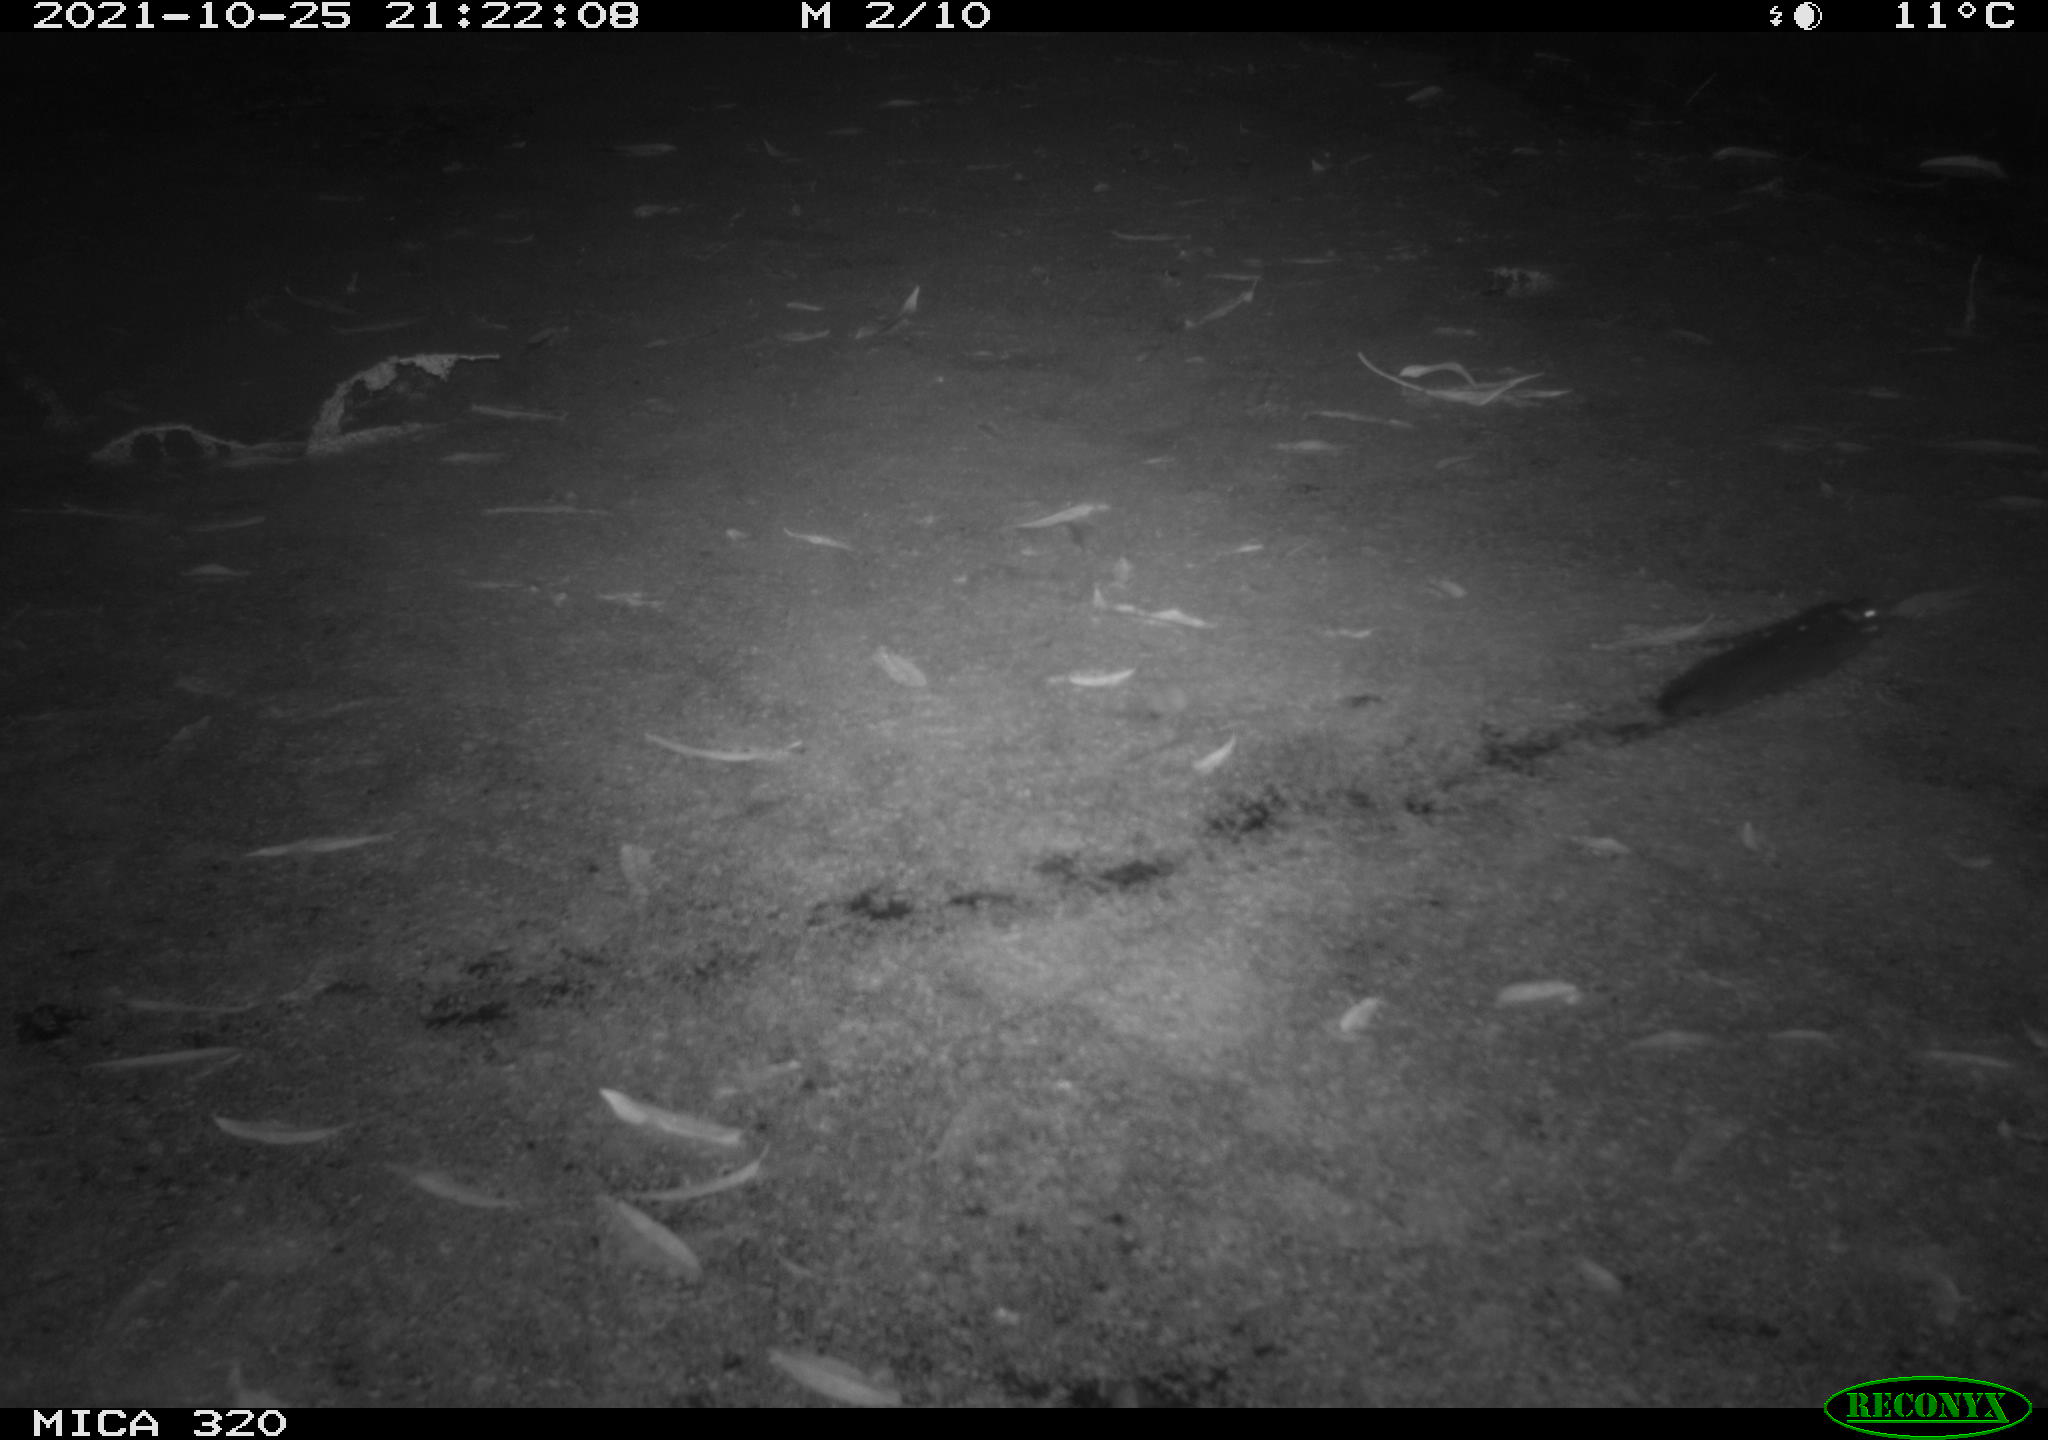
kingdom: Animalia
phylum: Chordata
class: Mammalia
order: Rodentia
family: Muridae
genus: Rattus
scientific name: Rattus norvegicus
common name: Brown rat
